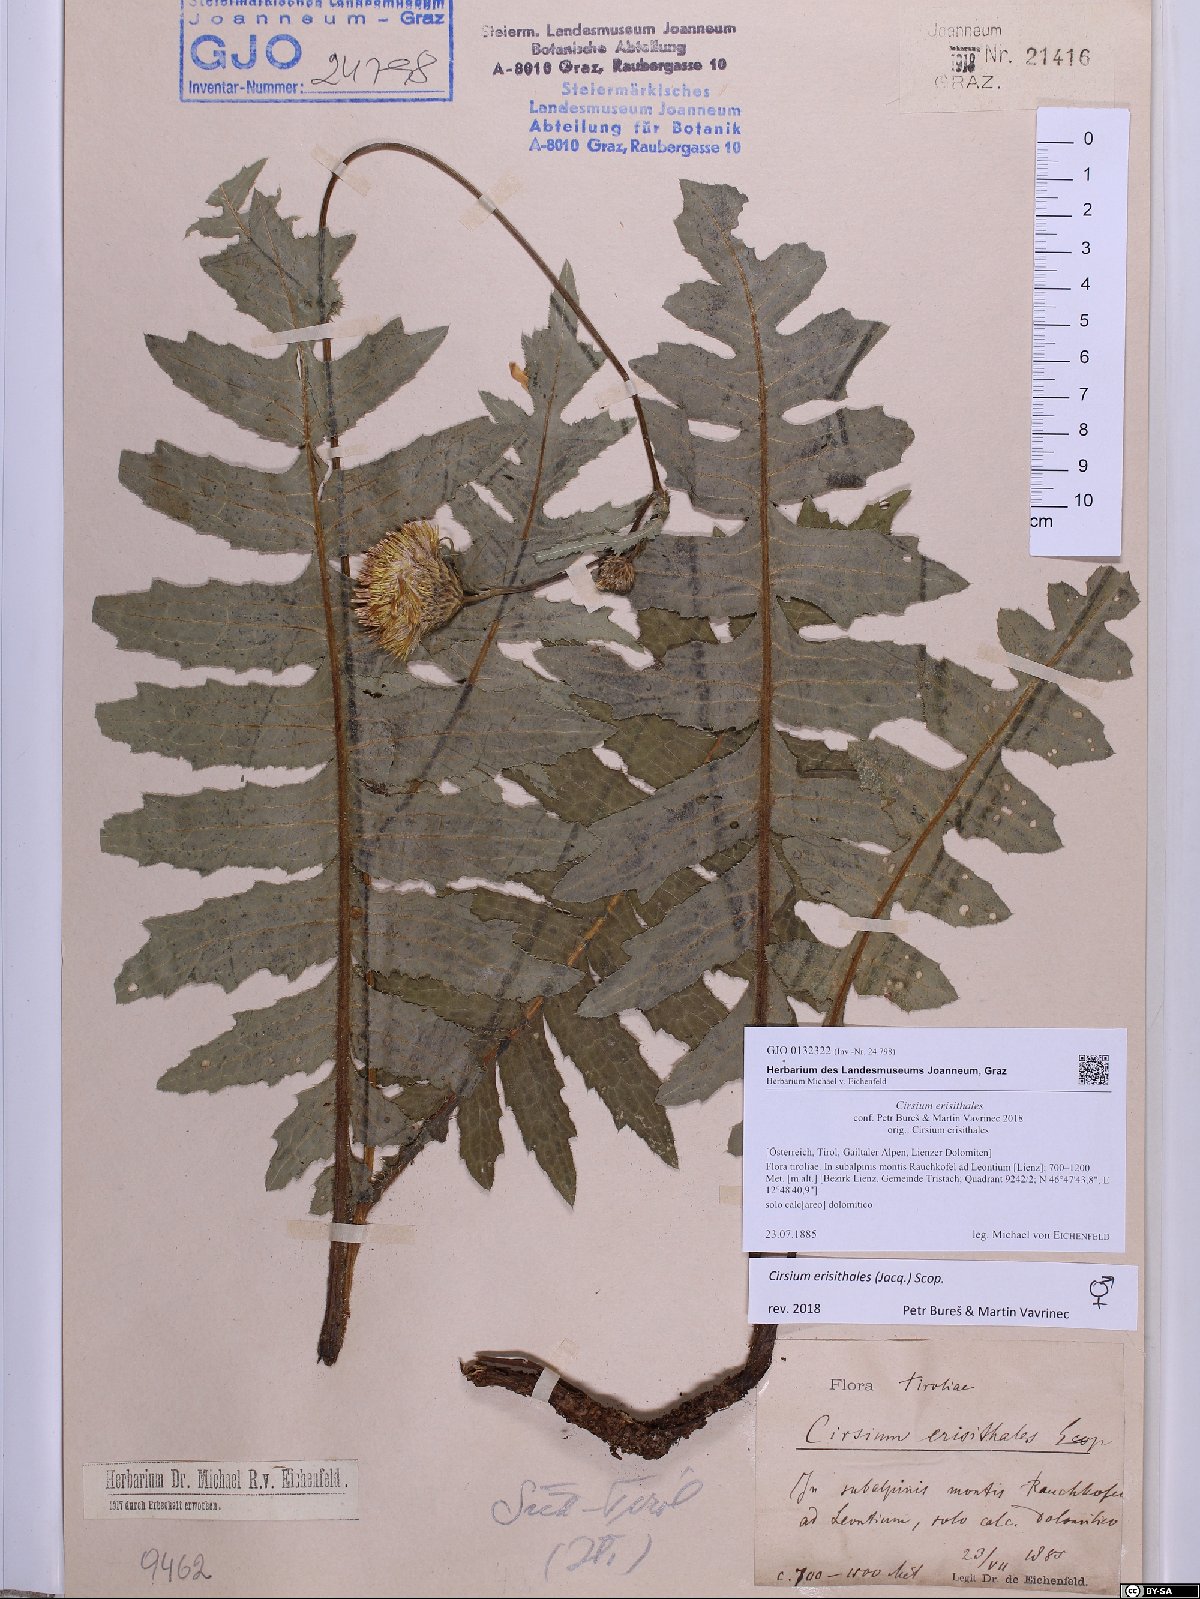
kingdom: Plantae
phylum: Tracheophyta
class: Magnoliopsida
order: Asterales
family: Asteraceae
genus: Cirsium
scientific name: Cirsium erisithales
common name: Yellow thistle
